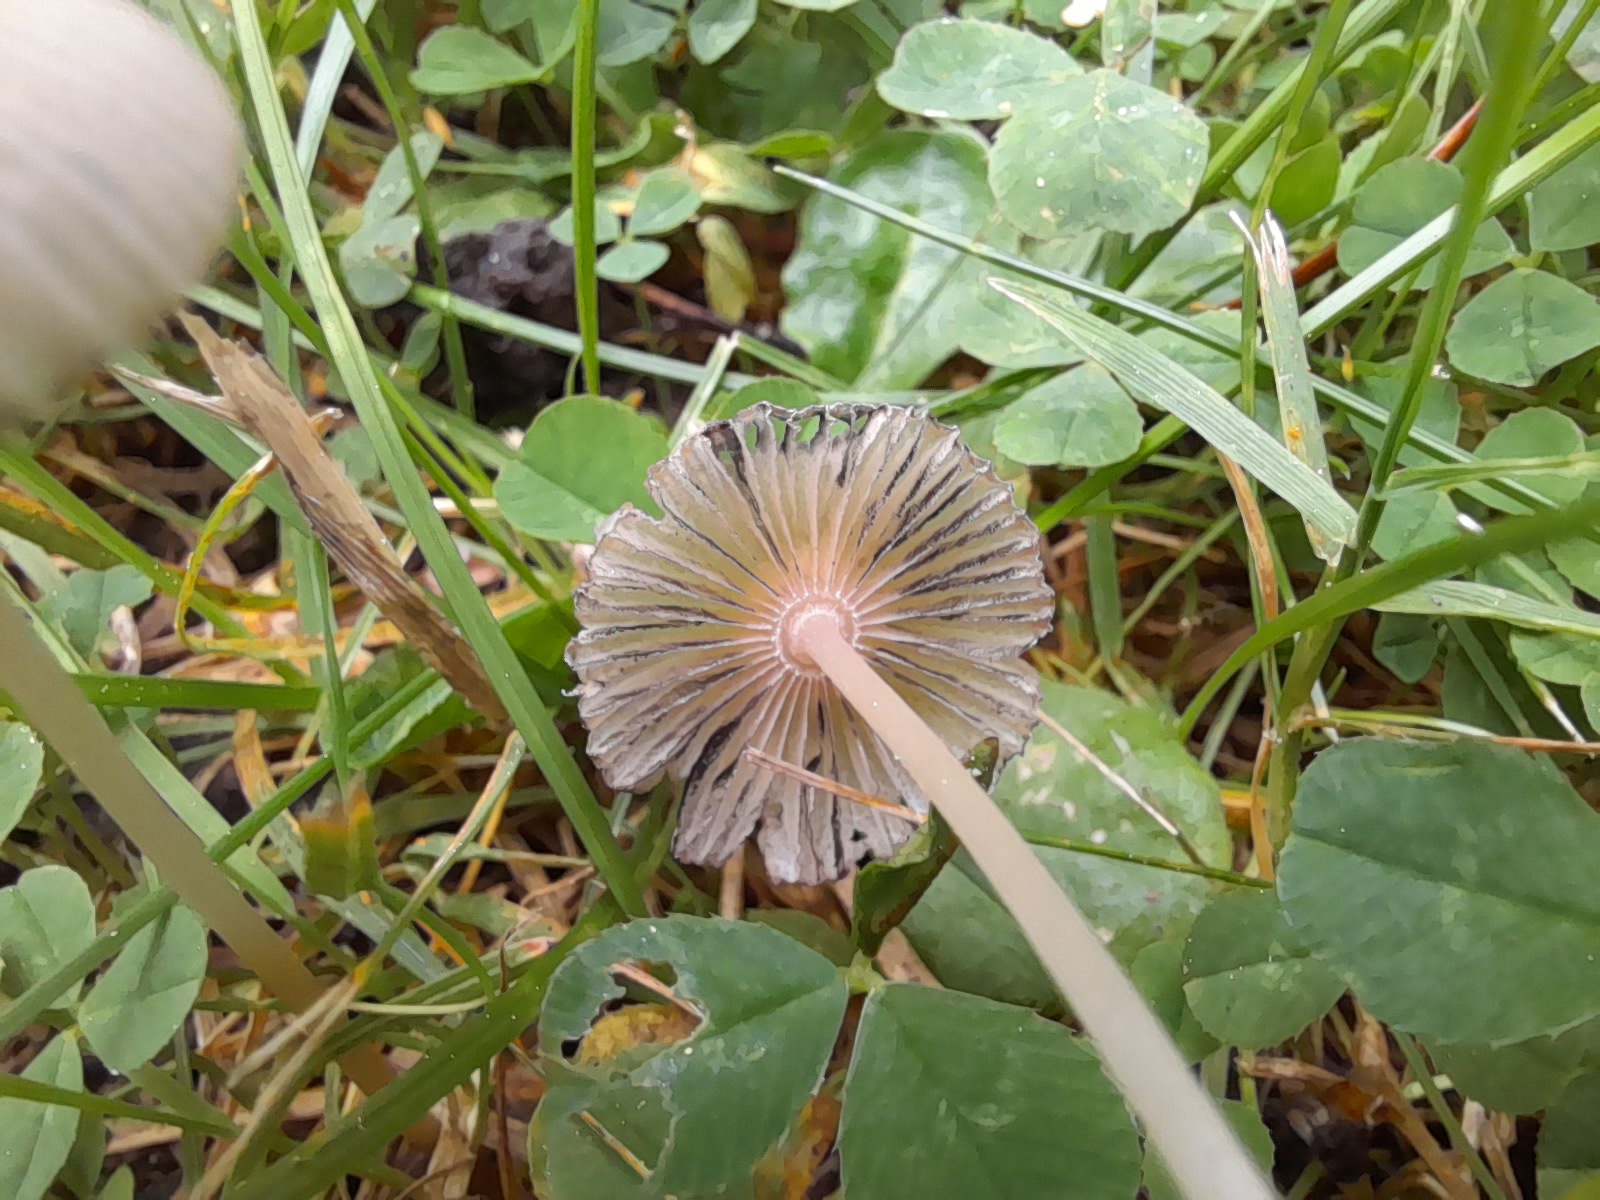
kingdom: Fungi
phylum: Basidiomycota
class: Agaricomycetes
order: Agaricales
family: Psathyrellaceae
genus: Parasola
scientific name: Parasola
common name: hjulhat
